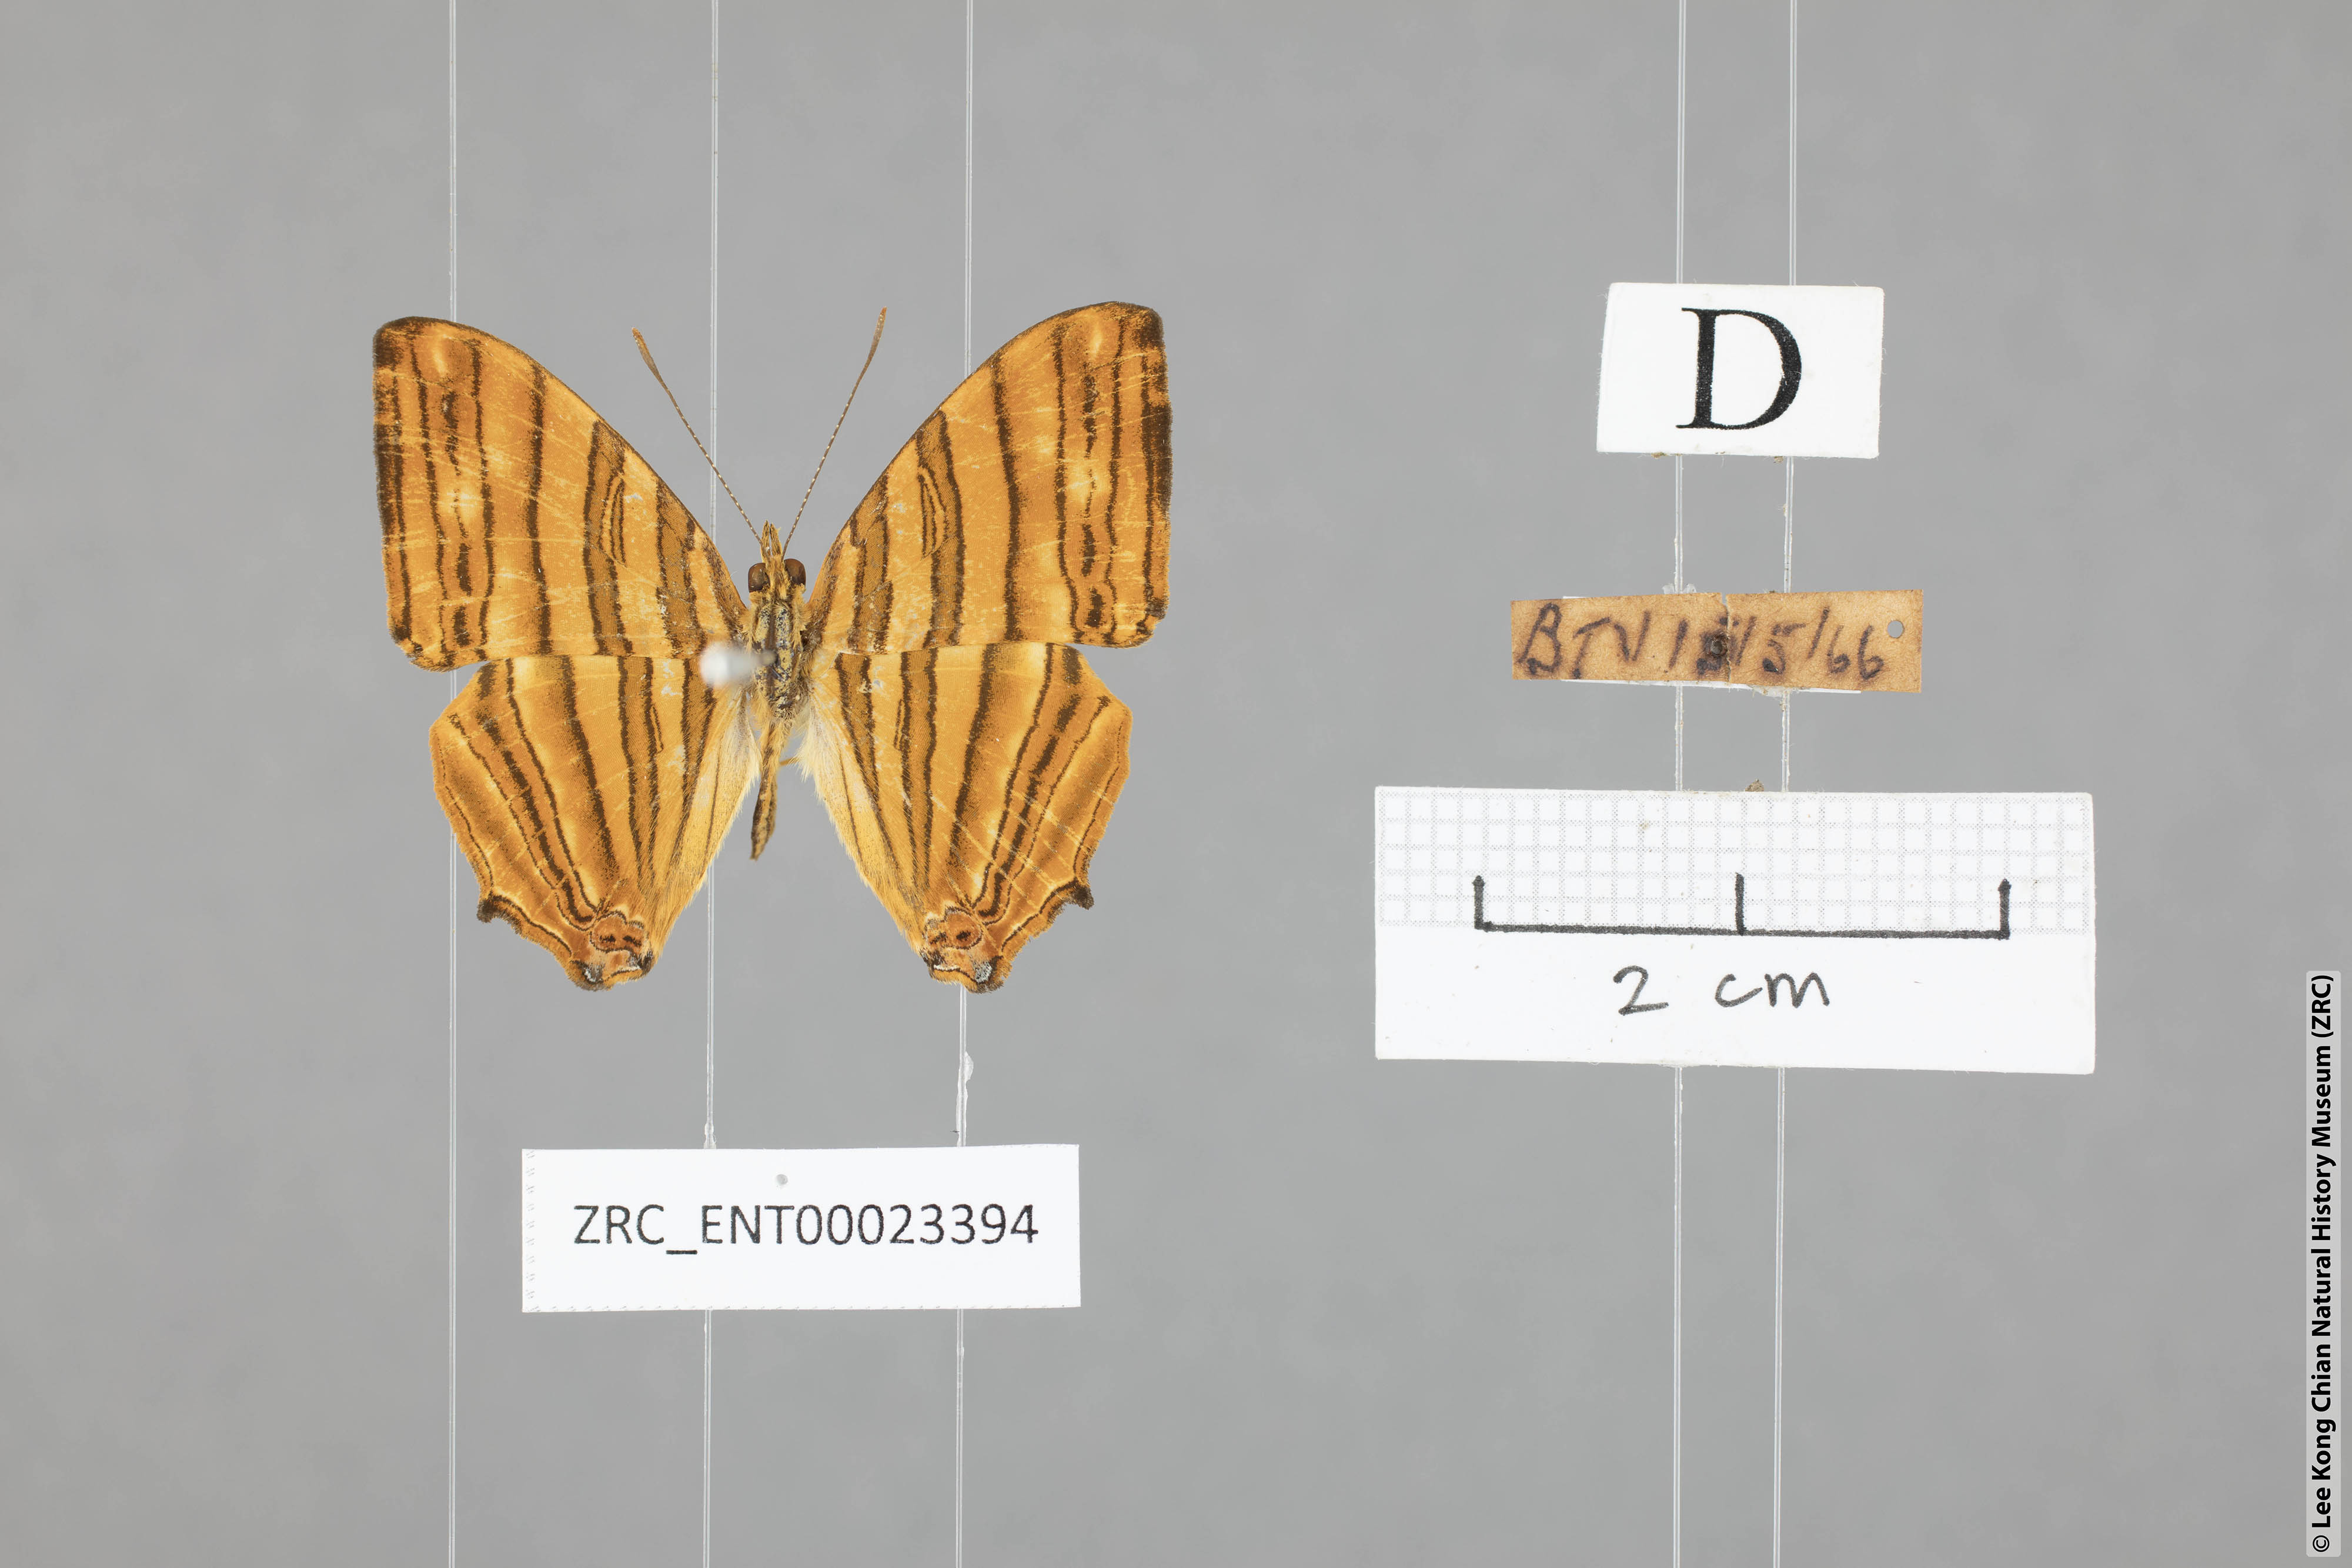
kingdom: Animalia
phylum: Arthropoda
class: Insecta
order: Lepidoptera
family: Nymphalidae
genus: Chersonesia
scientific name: Chersonesia risa
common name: Common maplet
